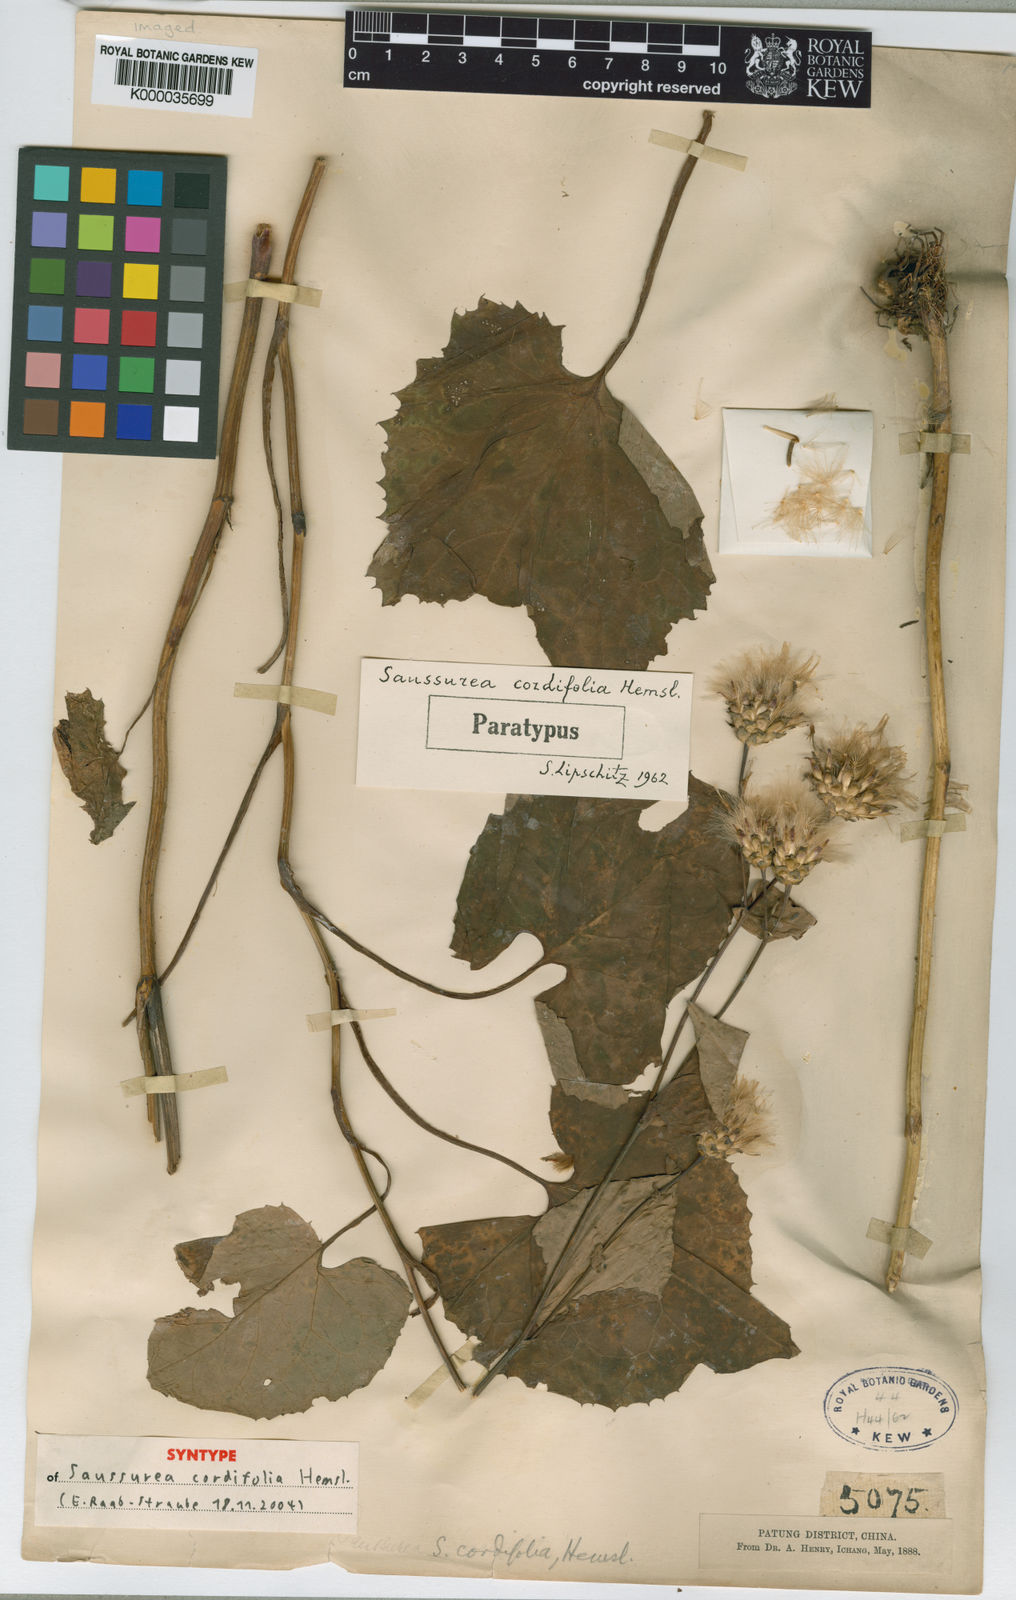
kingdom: Plantae
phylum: Tracheophyta
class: Magnoliopsida
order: Asterales
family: Asteraceae
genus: Saussurea
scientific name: Saussurea cordifolia
